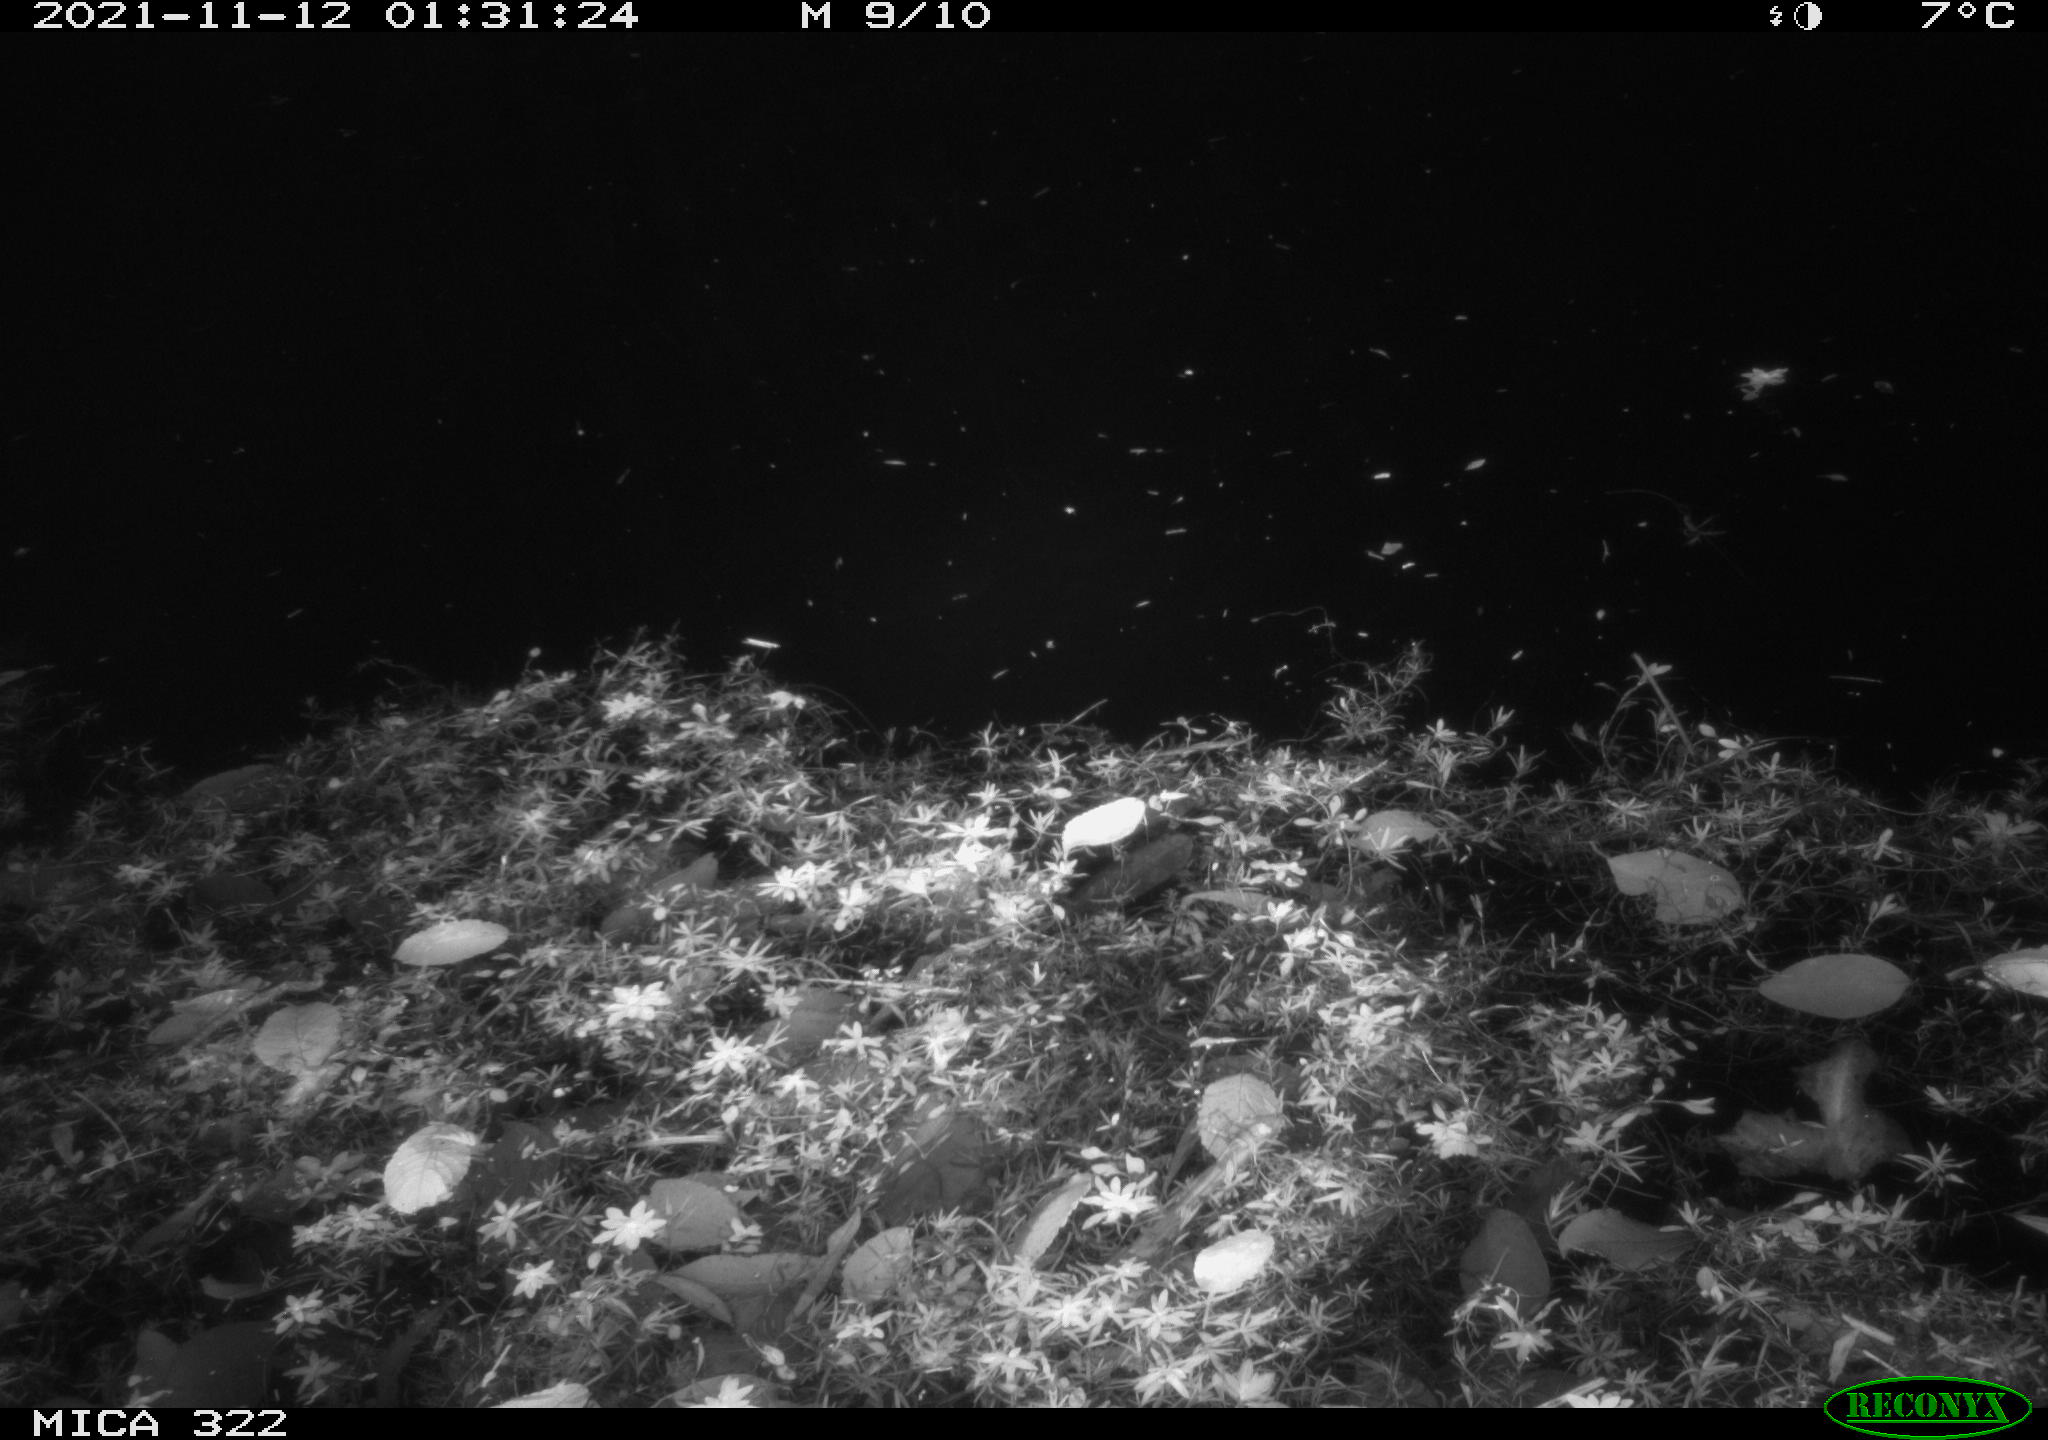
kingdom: Animalia
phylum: Chordata
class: Mammalia
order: Rodentia
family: Muridae
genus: Rattus
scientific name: Rattus norvegicus
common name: Brown rat
